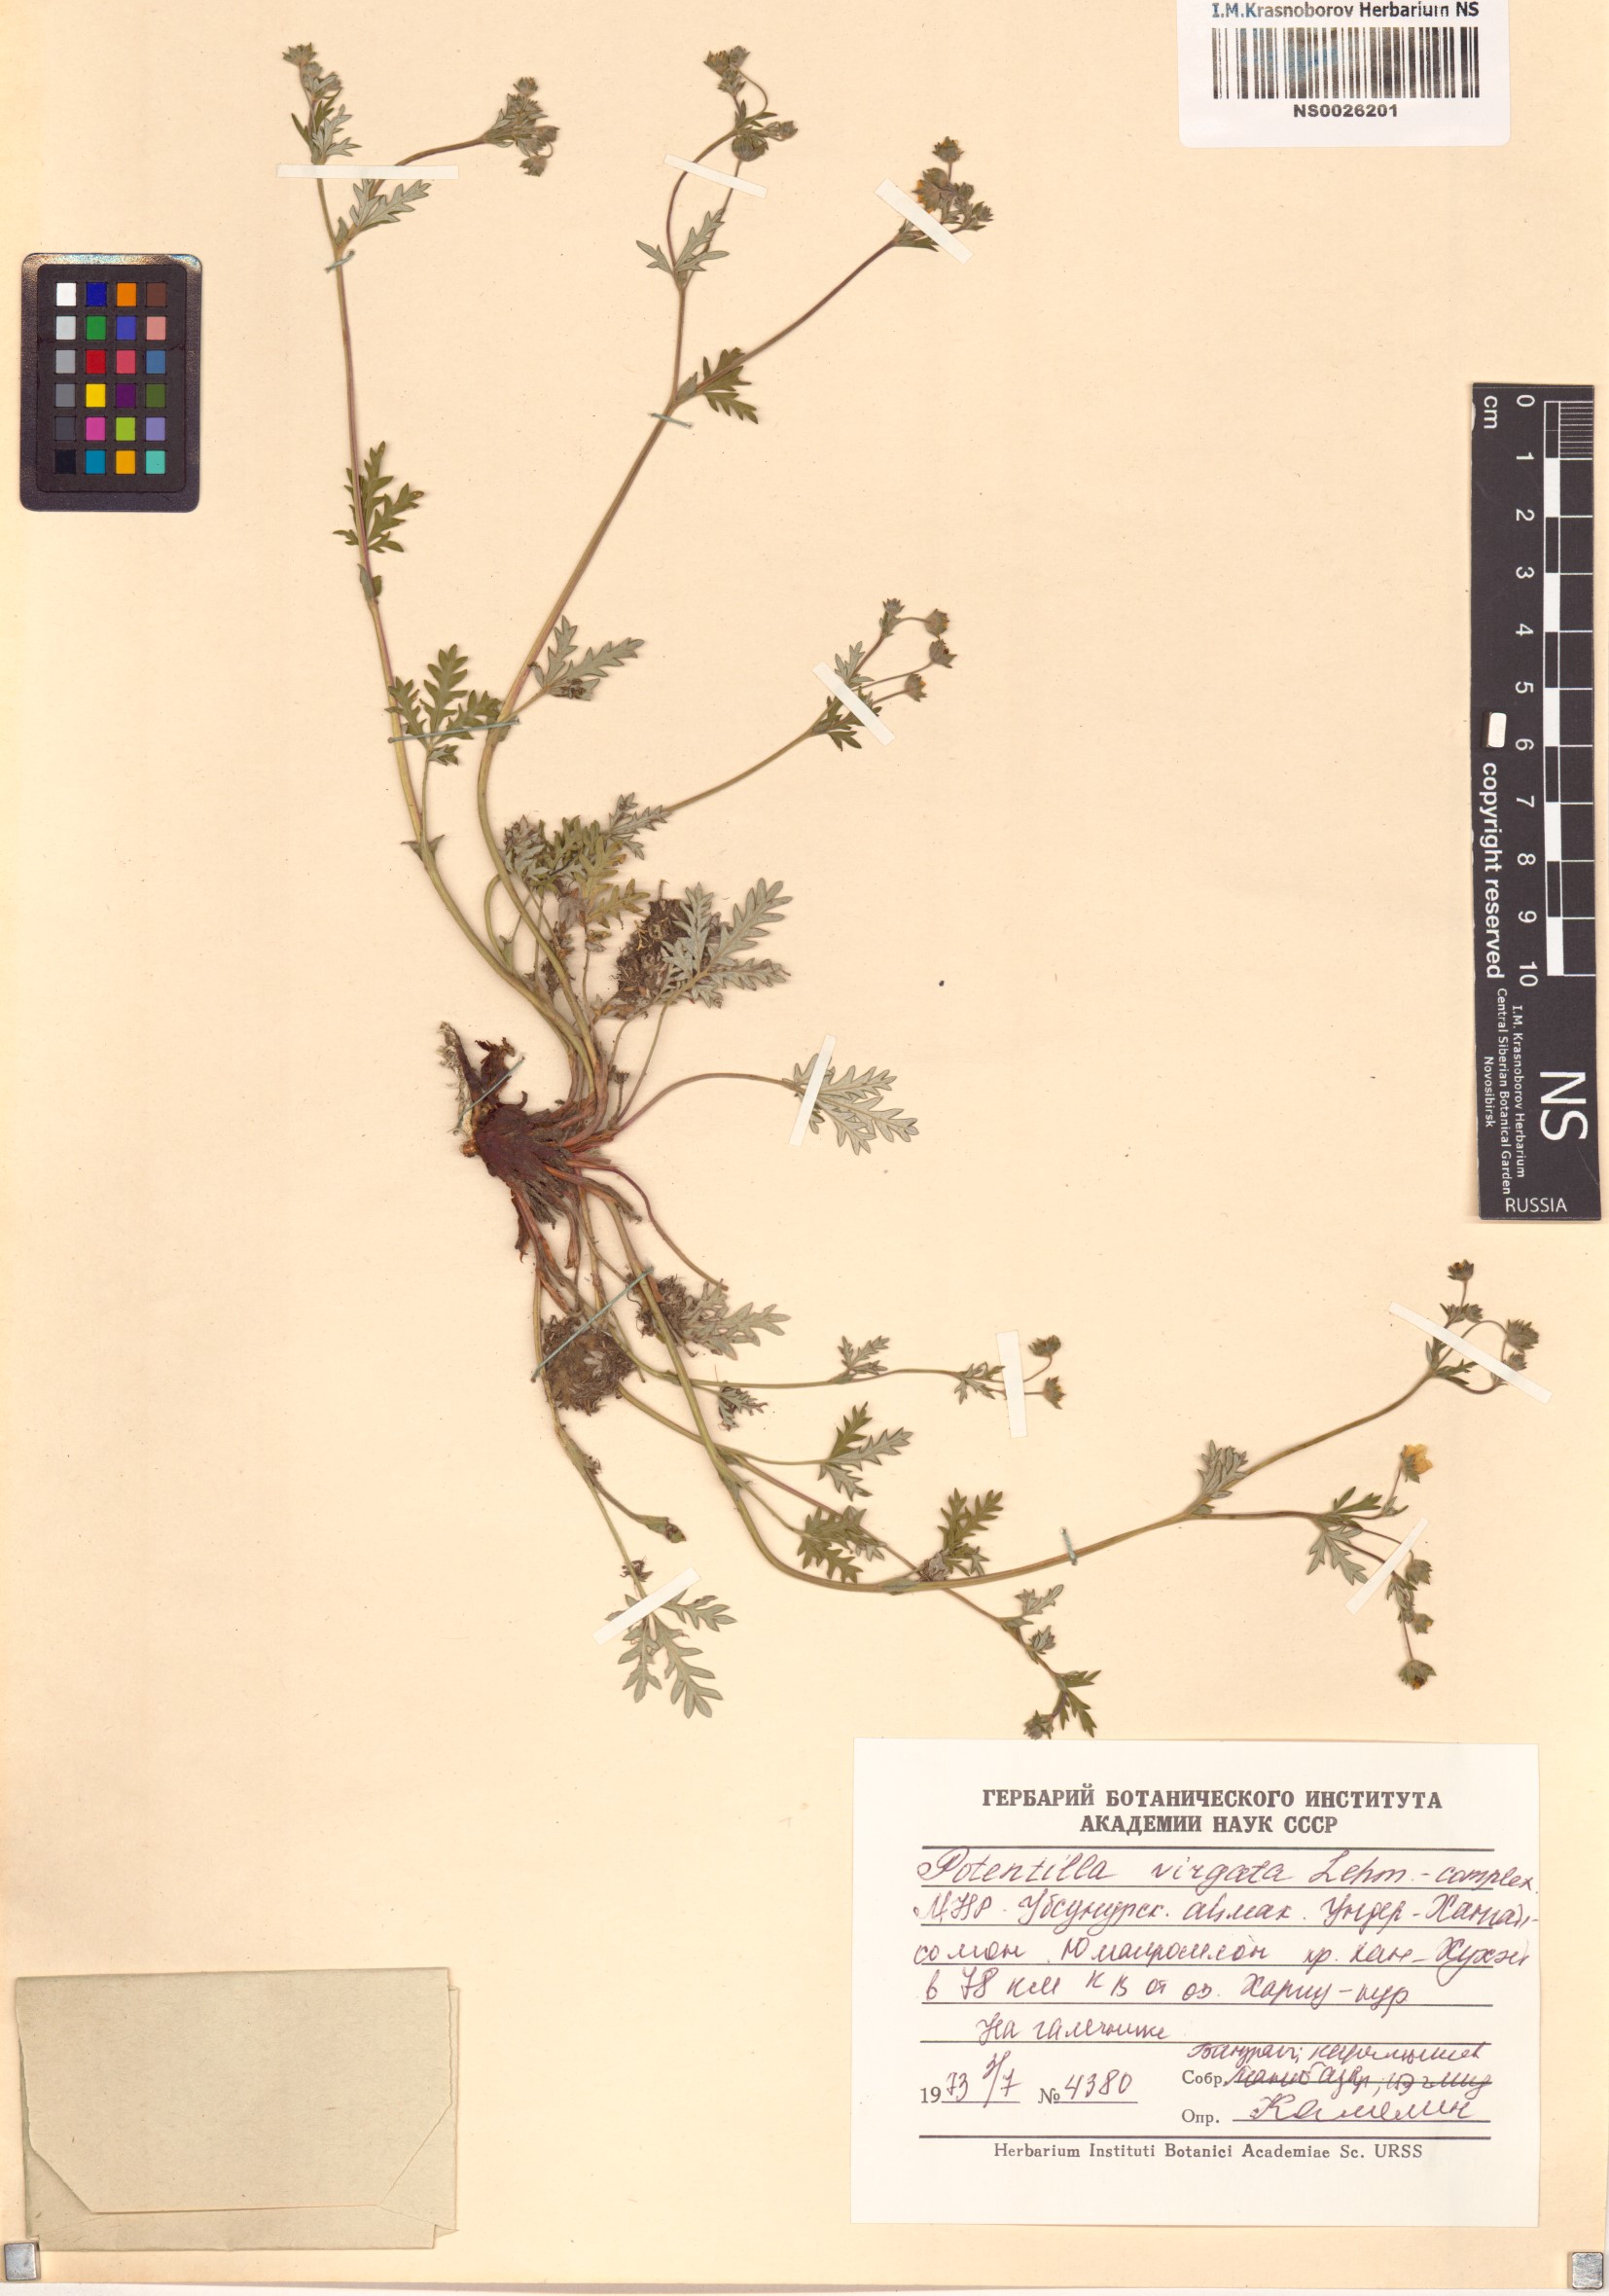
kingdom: Plantae
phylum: Tracheophyta
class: Magnoliopsida
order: Rosales
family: Rosaceae
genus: Potentilla
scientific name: Potentilla virgata
